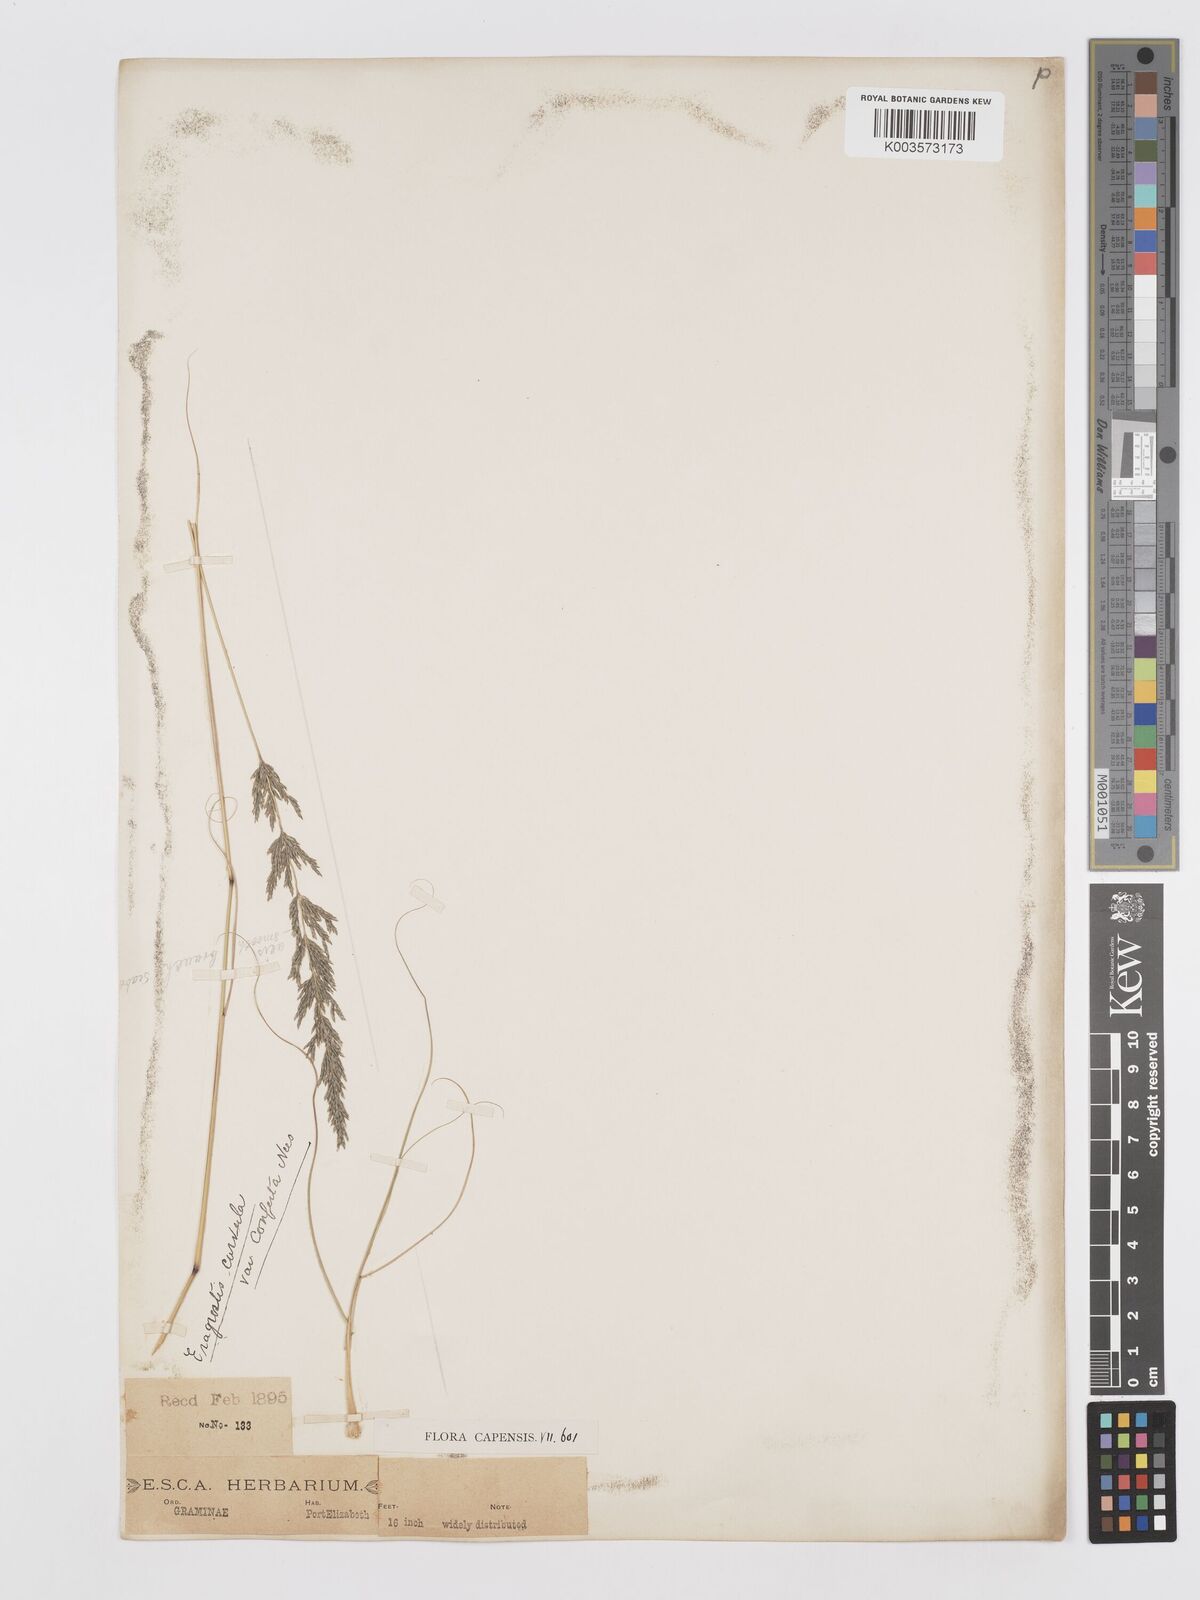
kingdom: Plantae
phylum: Tracheophyta
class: Liliopsida
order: Poales
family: Poaceae
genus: Eragrostis
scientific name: Eragrostis curvula
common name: African love-grass
